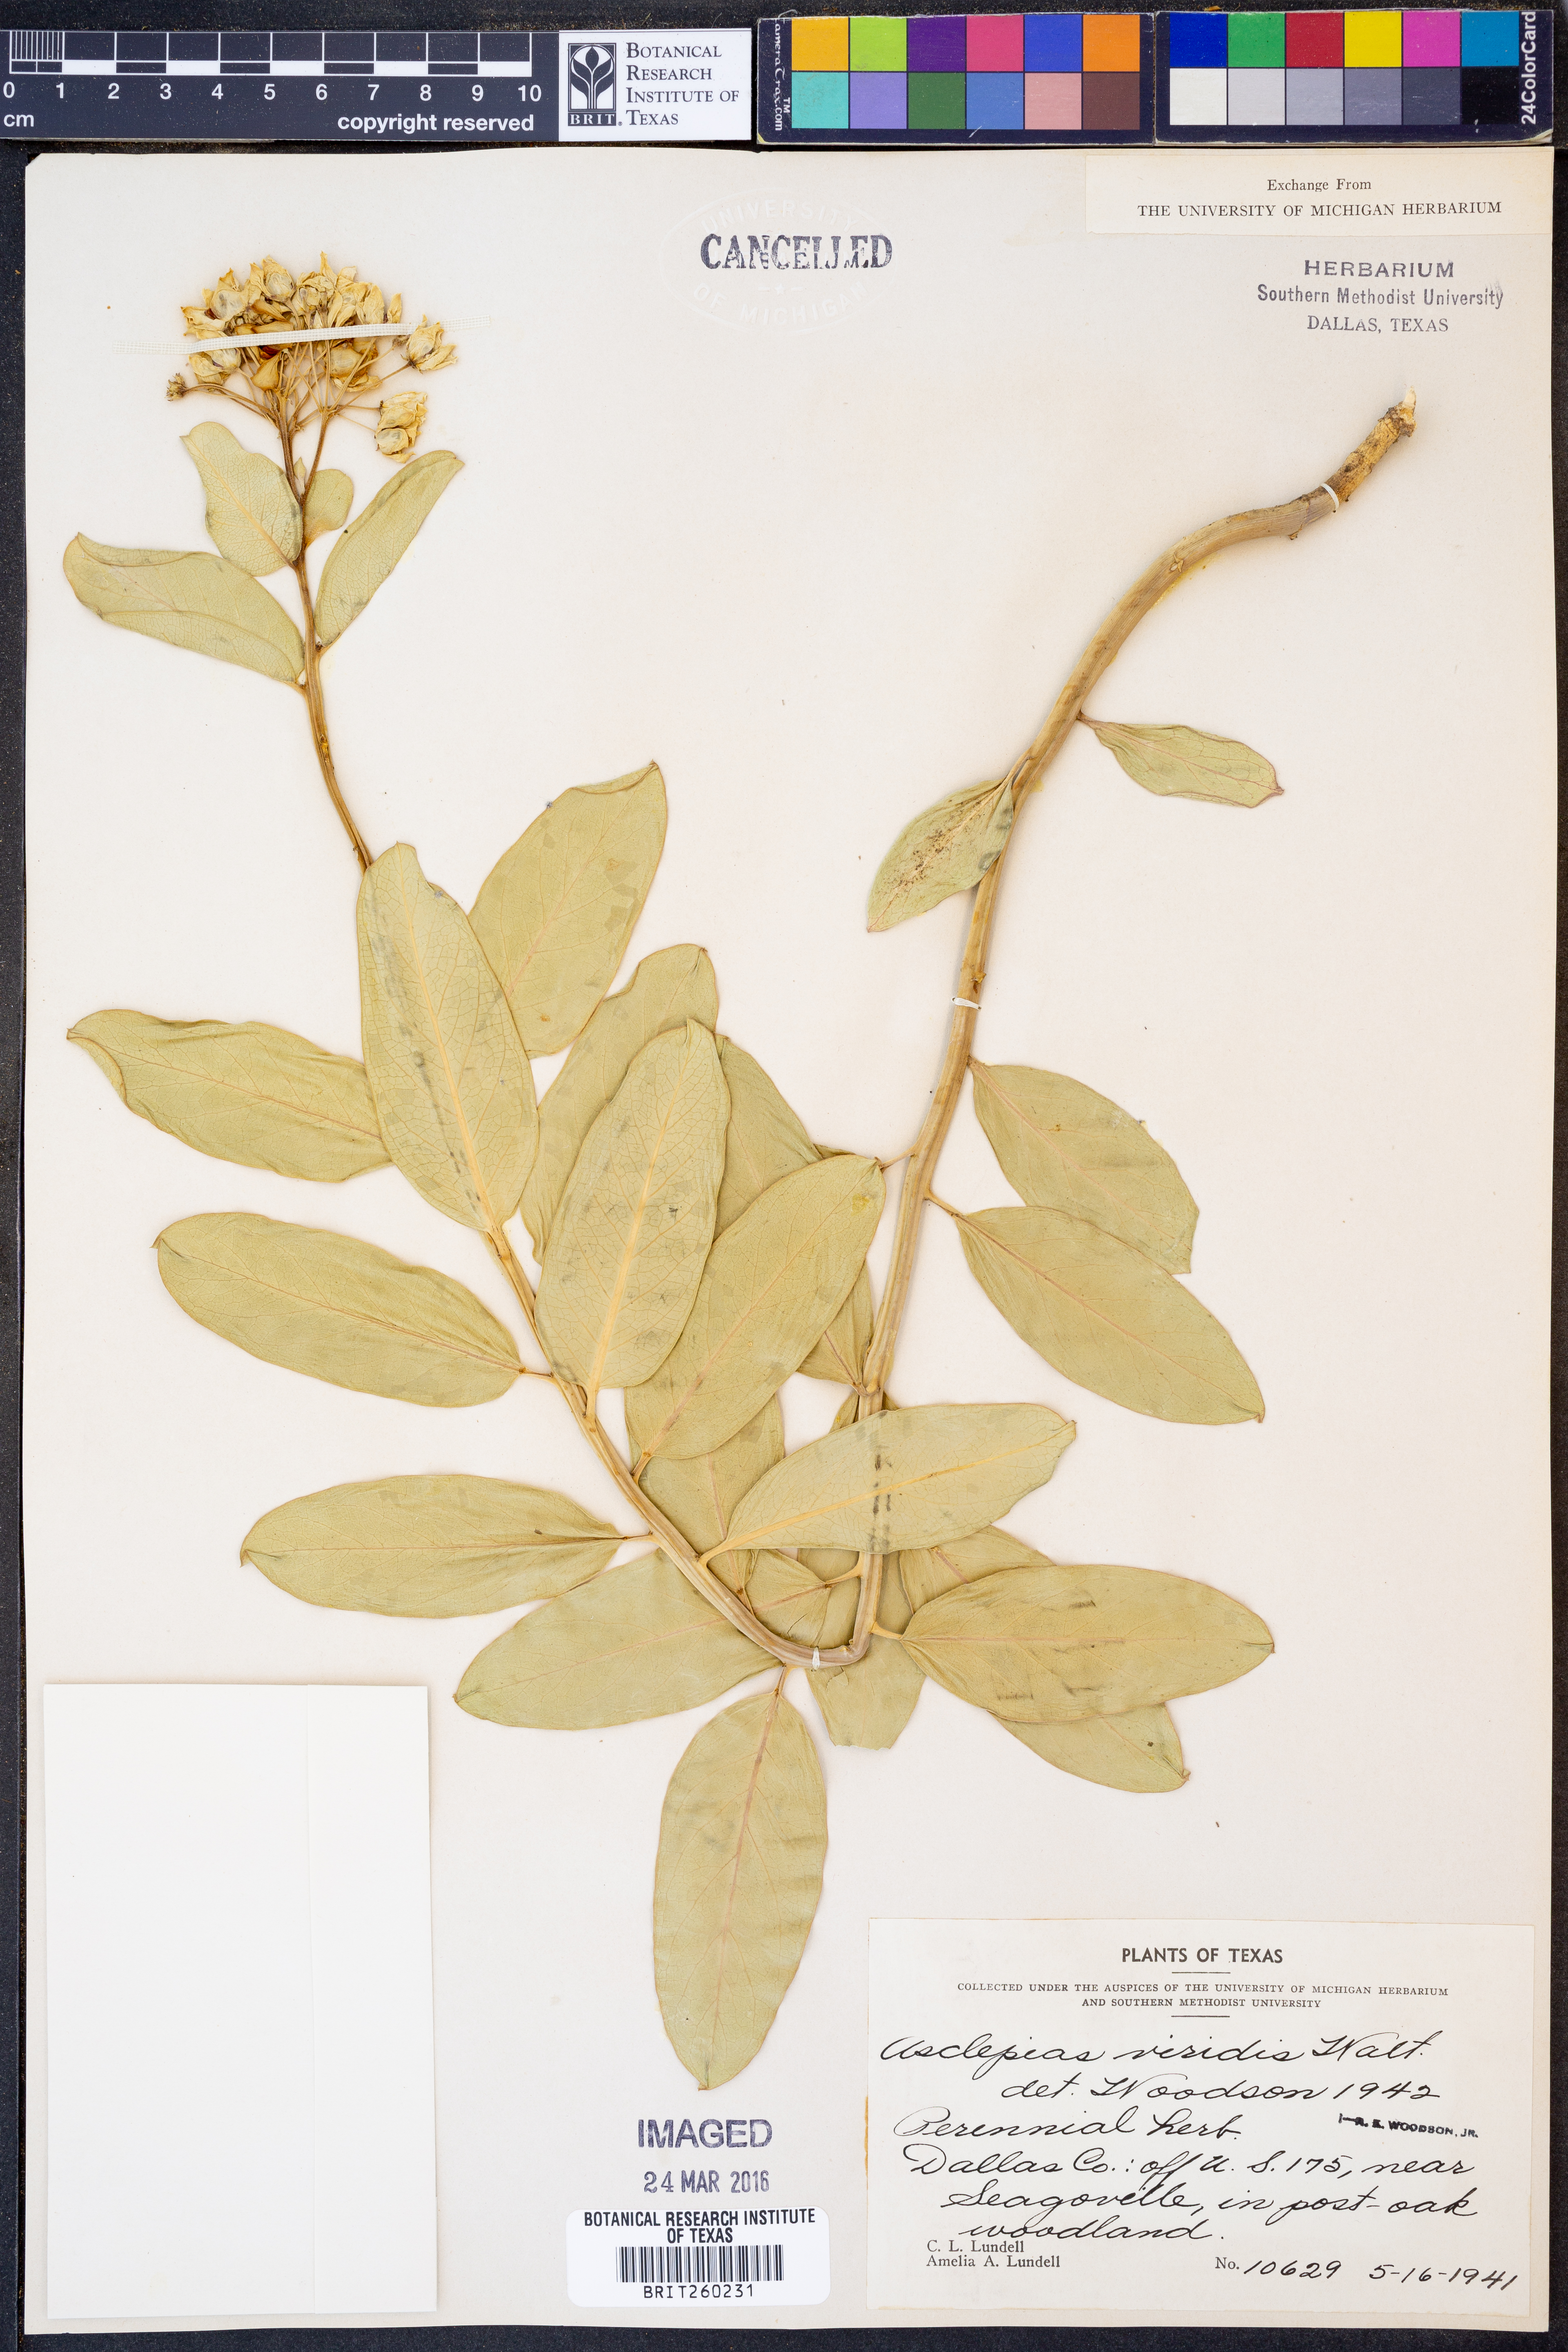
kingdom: Plantae
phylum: Tracheophyta
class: Magnoliopsida
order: Gentianales
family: Apocynaceae
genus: Asclepias
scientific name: Asclepias viridis
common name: Antelope-horns
